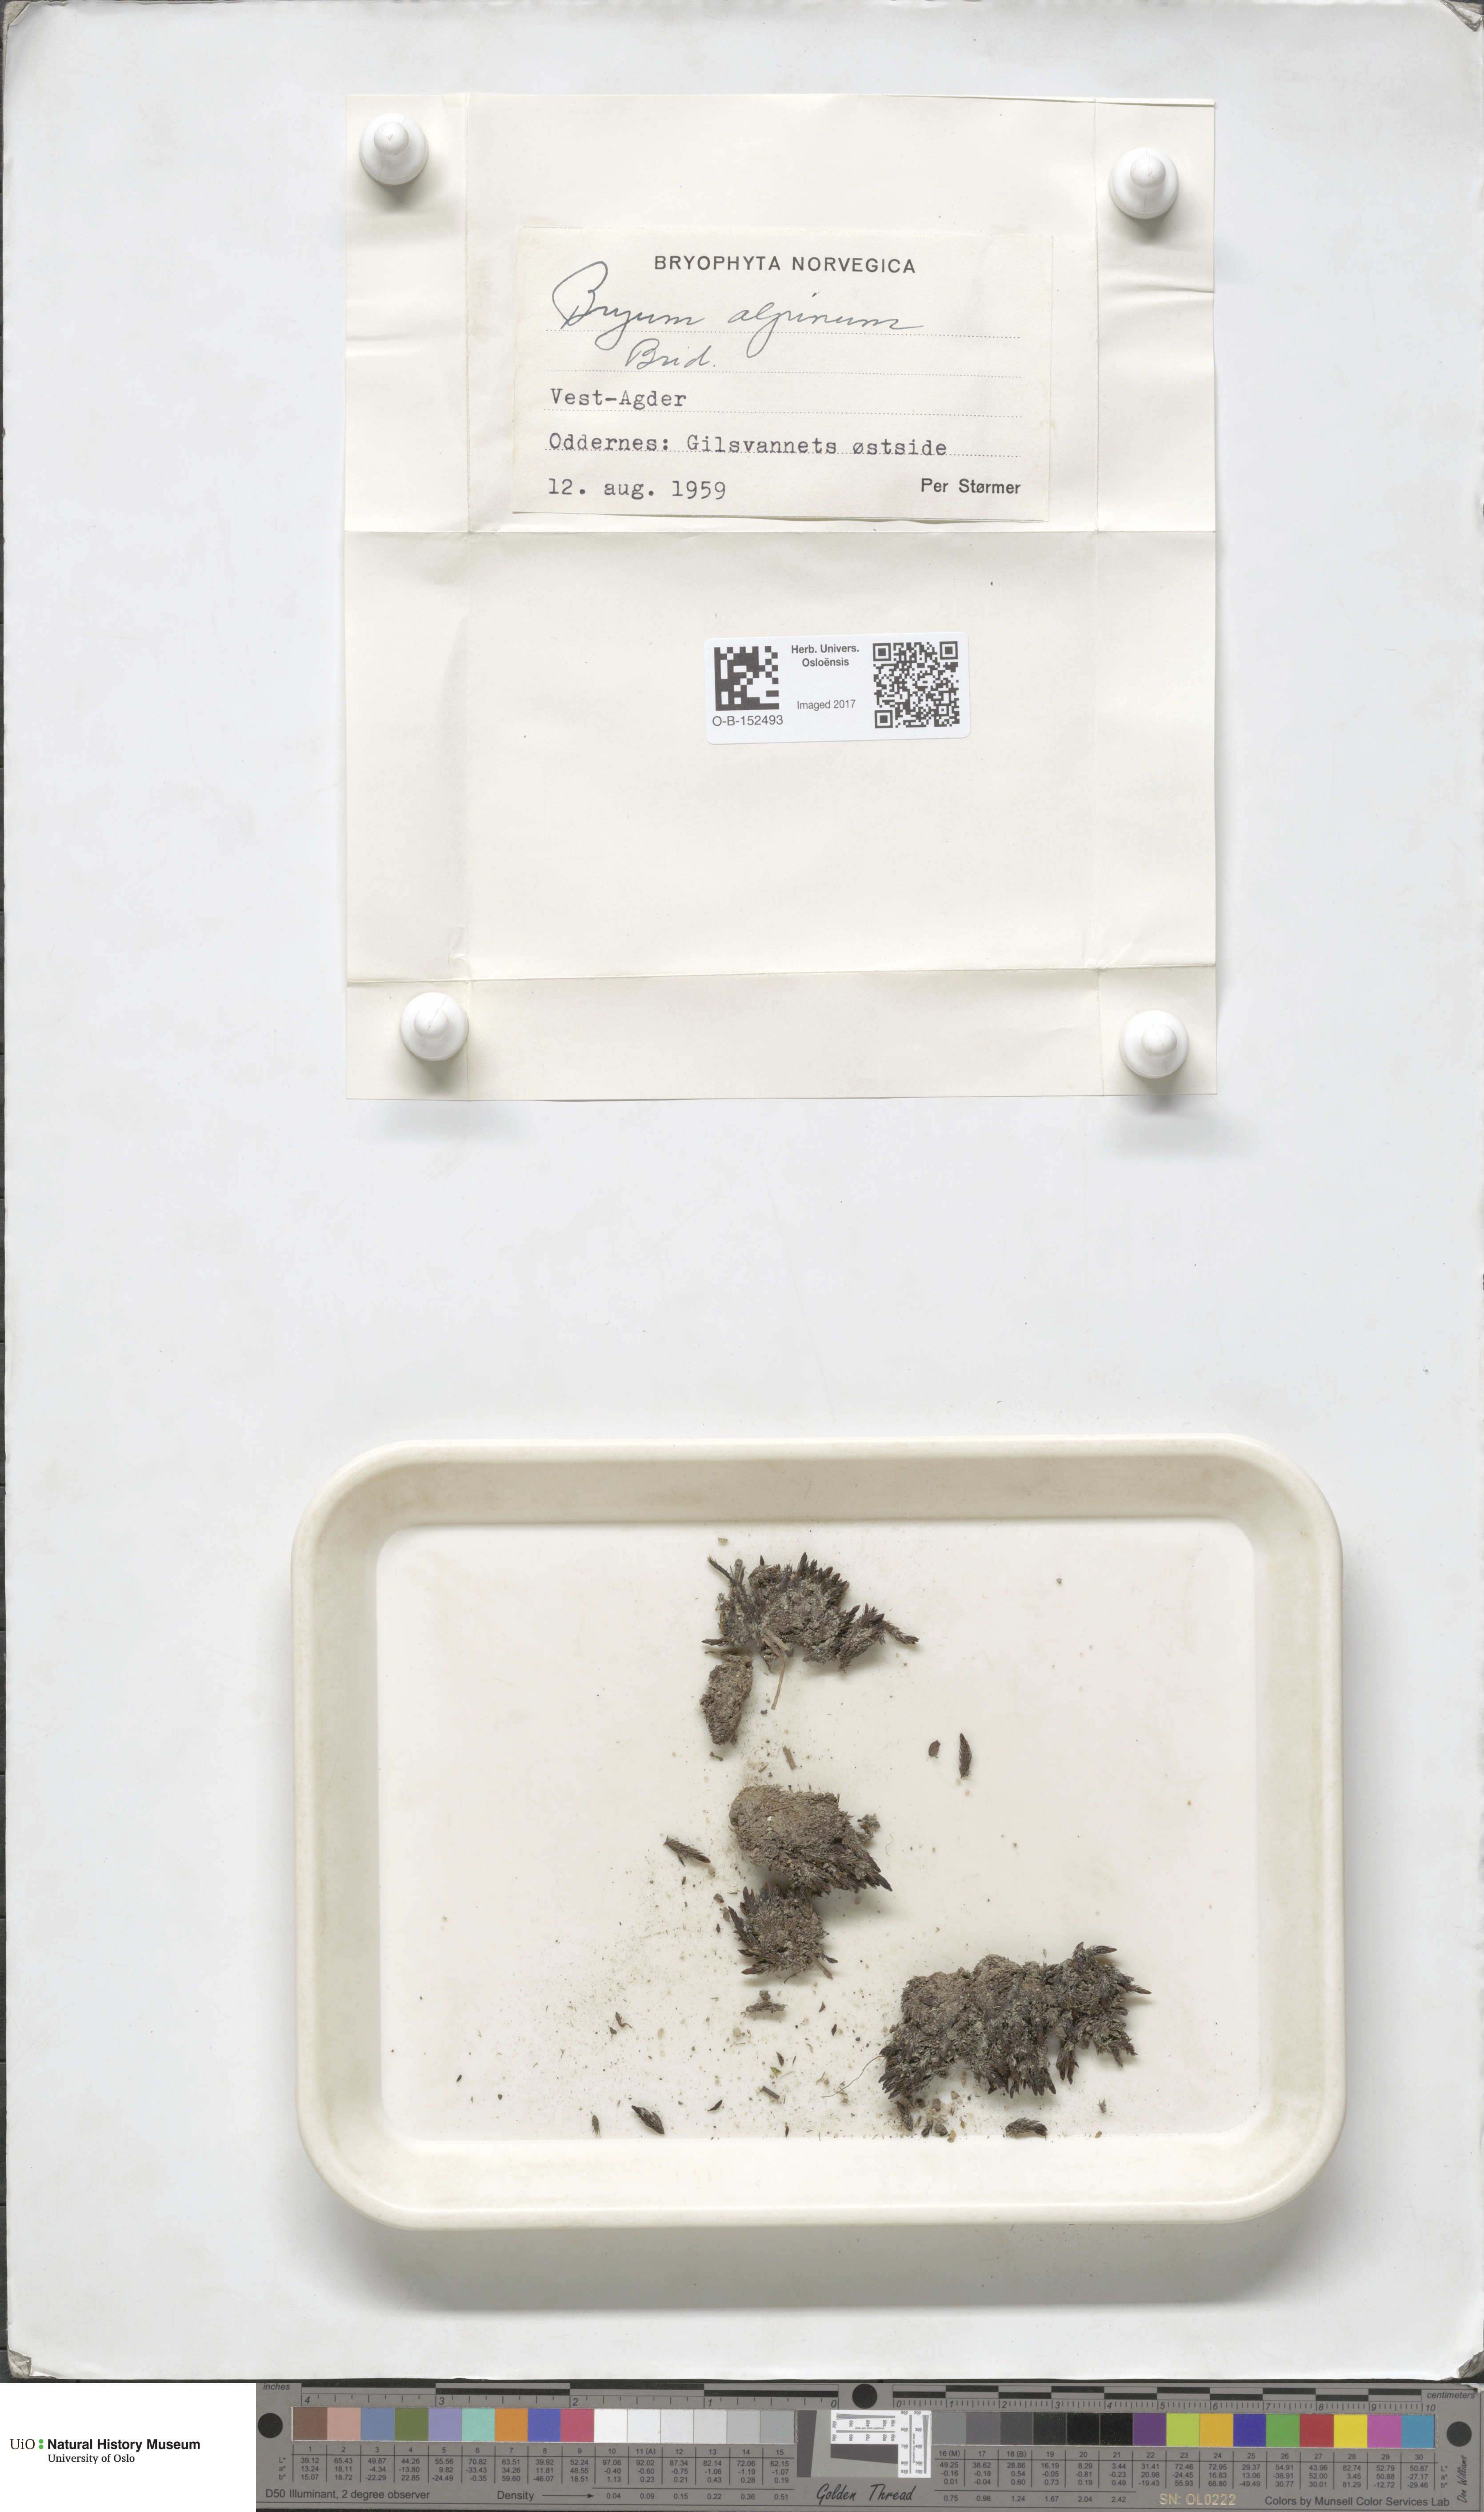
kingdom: Plantae
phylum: Bryophyta
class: Bryopsida
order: Bryales
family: Bryaceae
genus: Imbribryum
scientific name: Imbribryum alpinum
